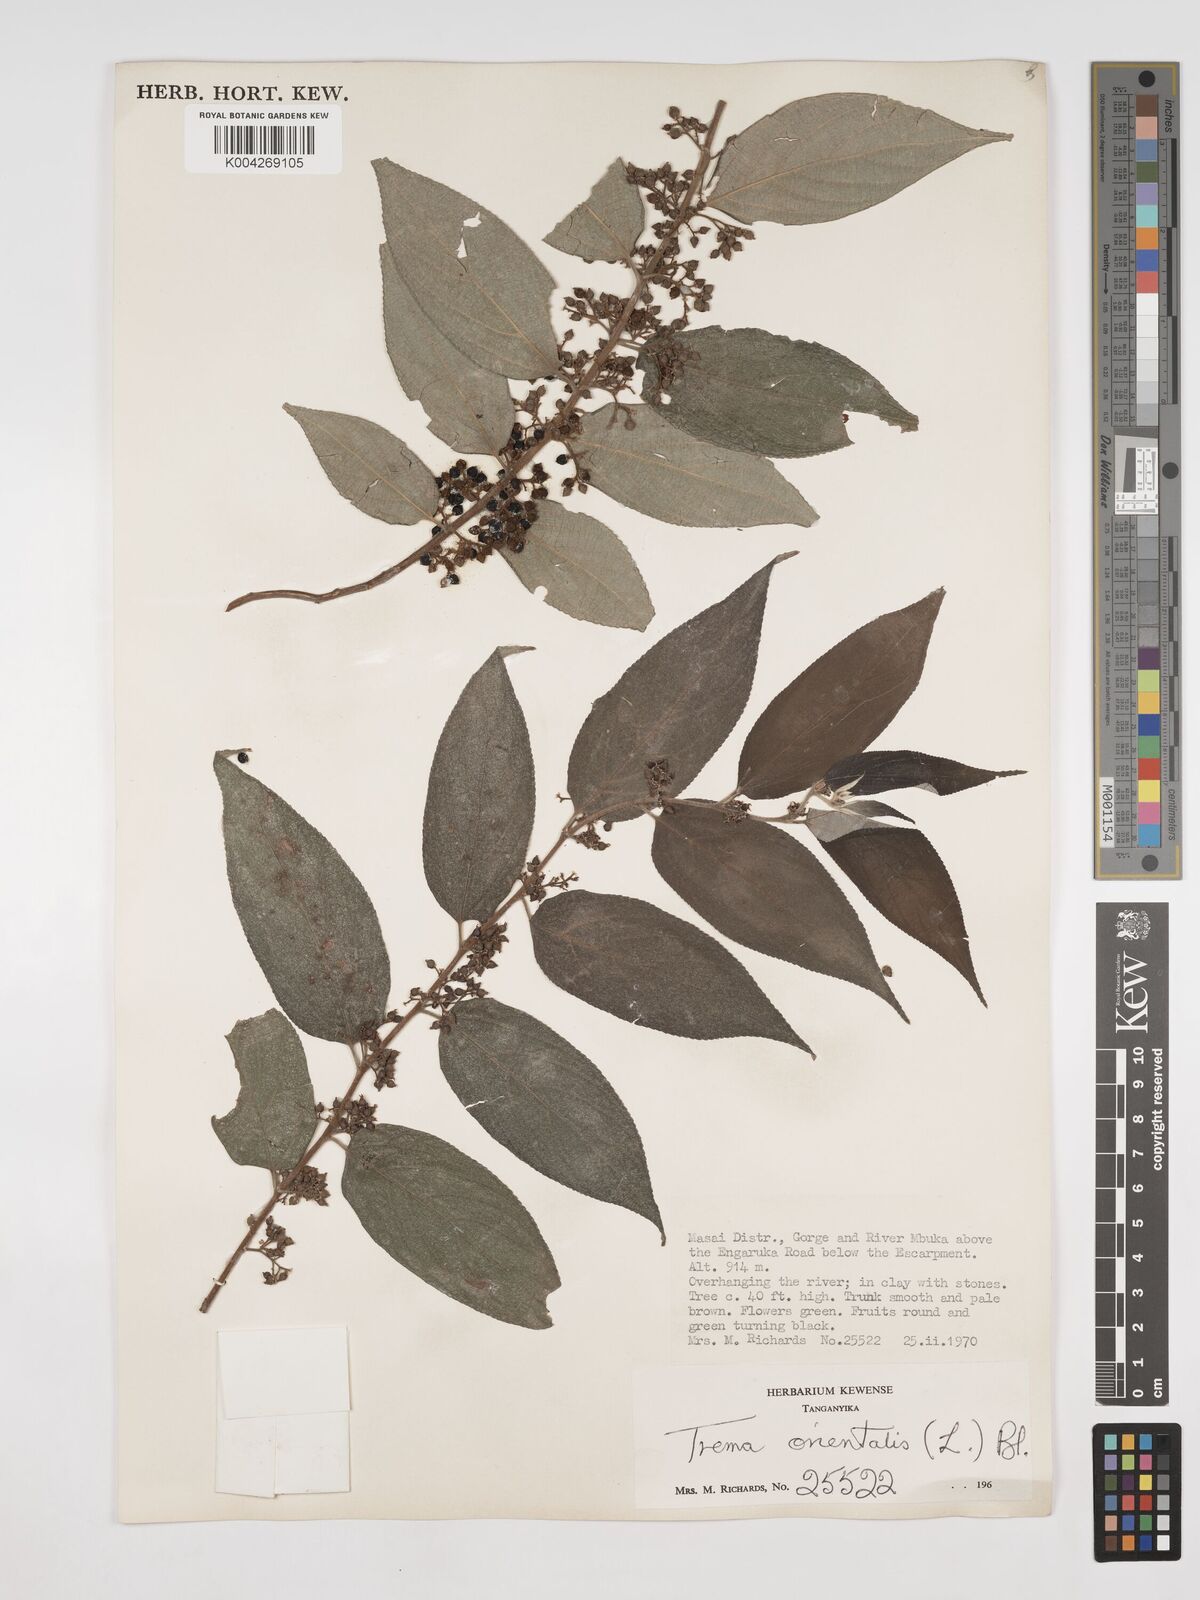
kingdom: Plantae
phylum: Tracheophyta
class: Magnoliopsida
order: Rosales
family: Cannabaceae
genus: Trema
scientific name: Trema orientale
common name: Indian charcoal tree
